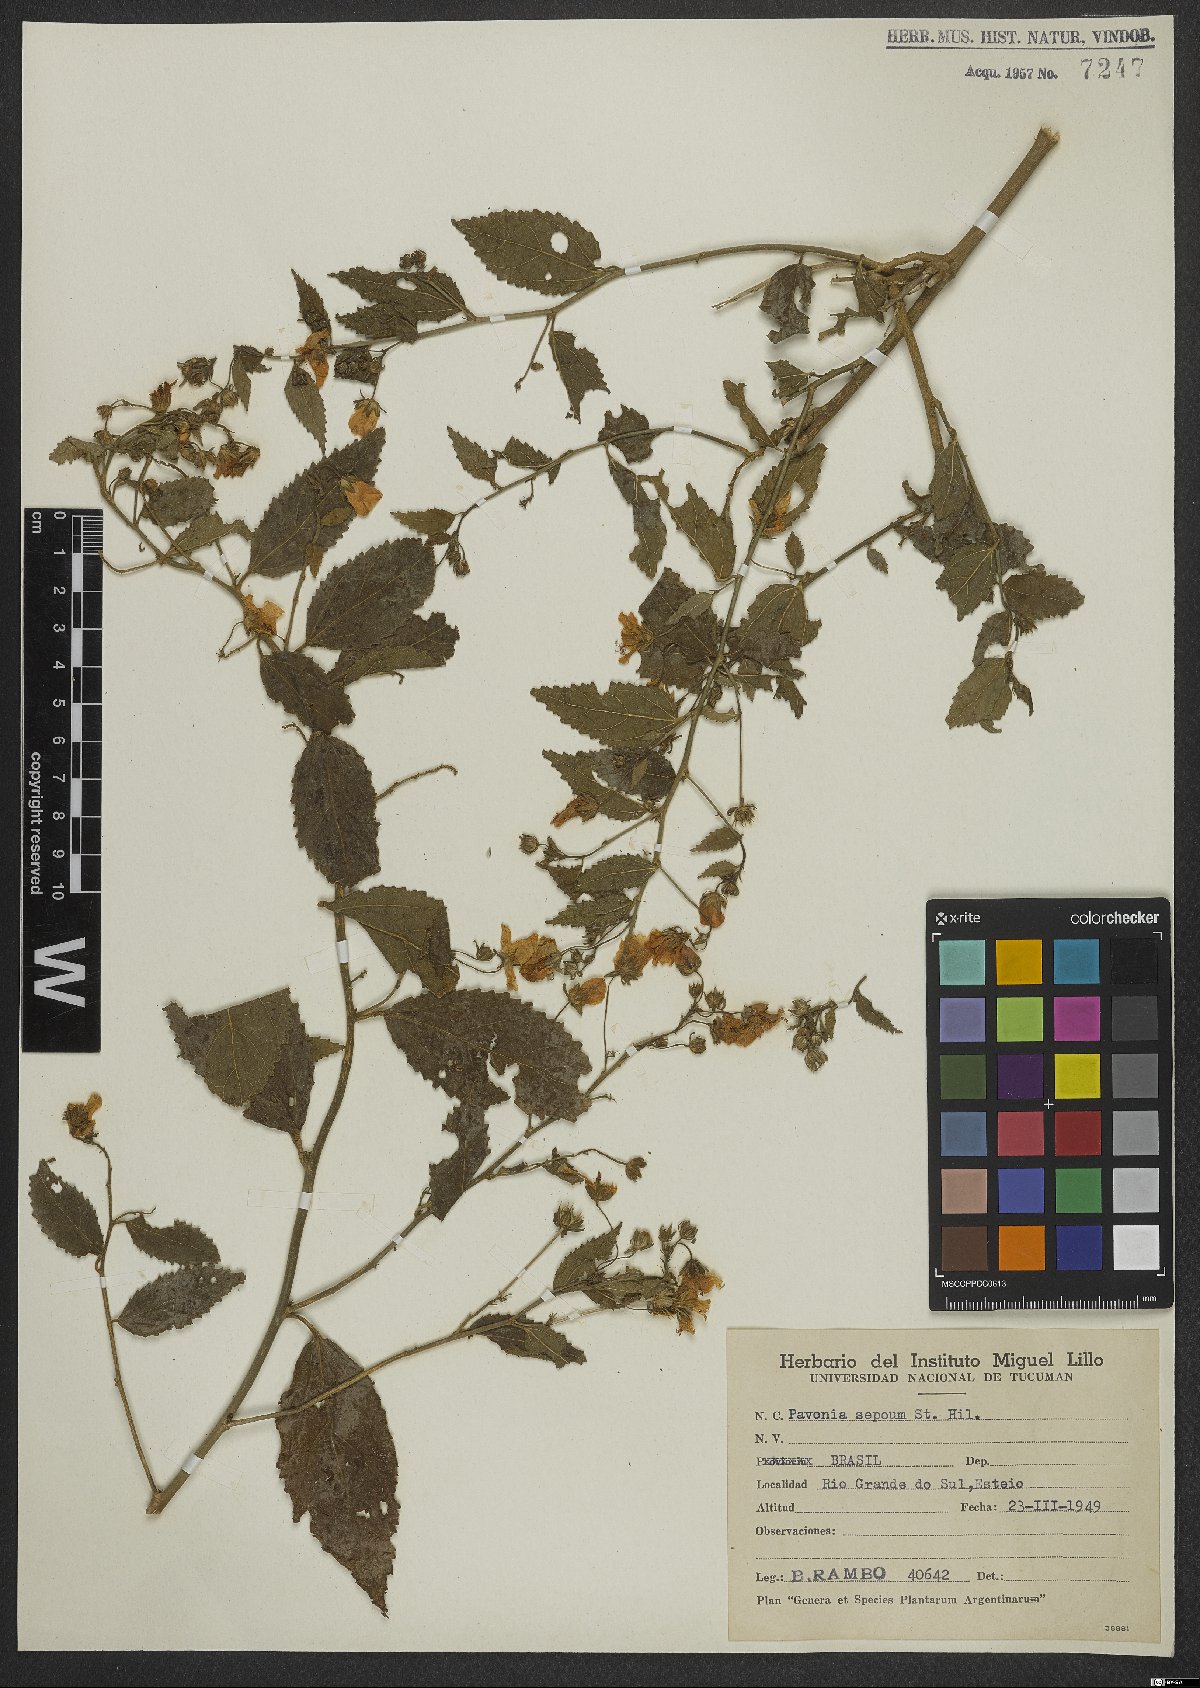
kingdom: Plantae
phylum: Tracheophyta
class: Magnoliopsida
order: Malvales
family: Malvaceae
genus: Pavonia
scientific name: Pavonia sepium
